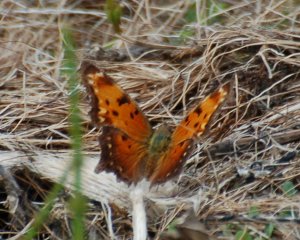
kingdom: Animalia
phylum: Arthropoda
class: Insecta
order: Lepidoptera
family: Nymphalidae
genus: Polygonia
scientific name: Polygonia progne
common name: Gray Comma
